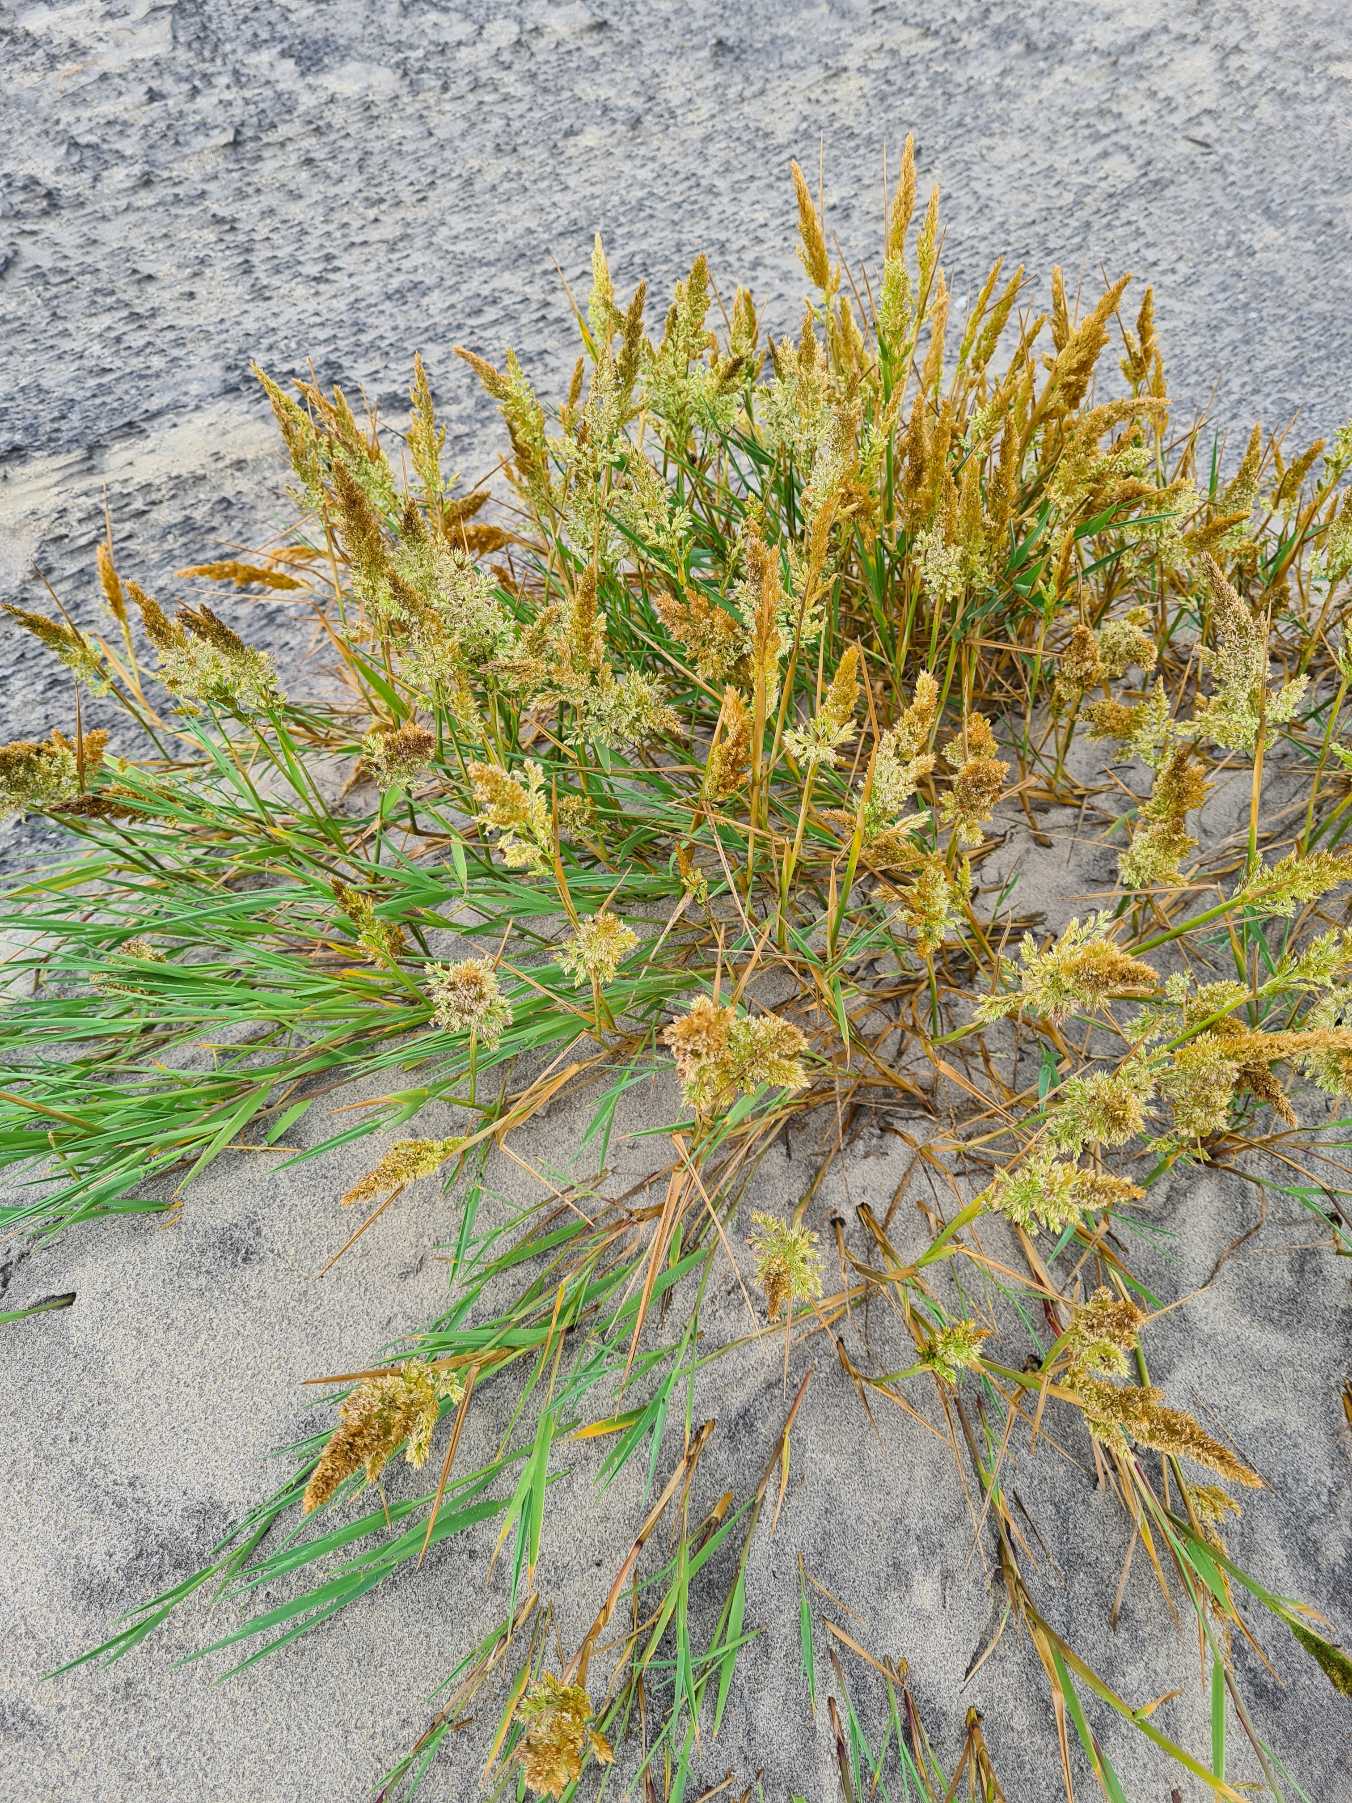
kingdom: Plantae
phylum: Tracheophyta
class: Liliopsida
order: Poales
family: Poaceae
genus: Agrostis
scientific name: Agrostis stolonifera
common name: Kryb-hvene
